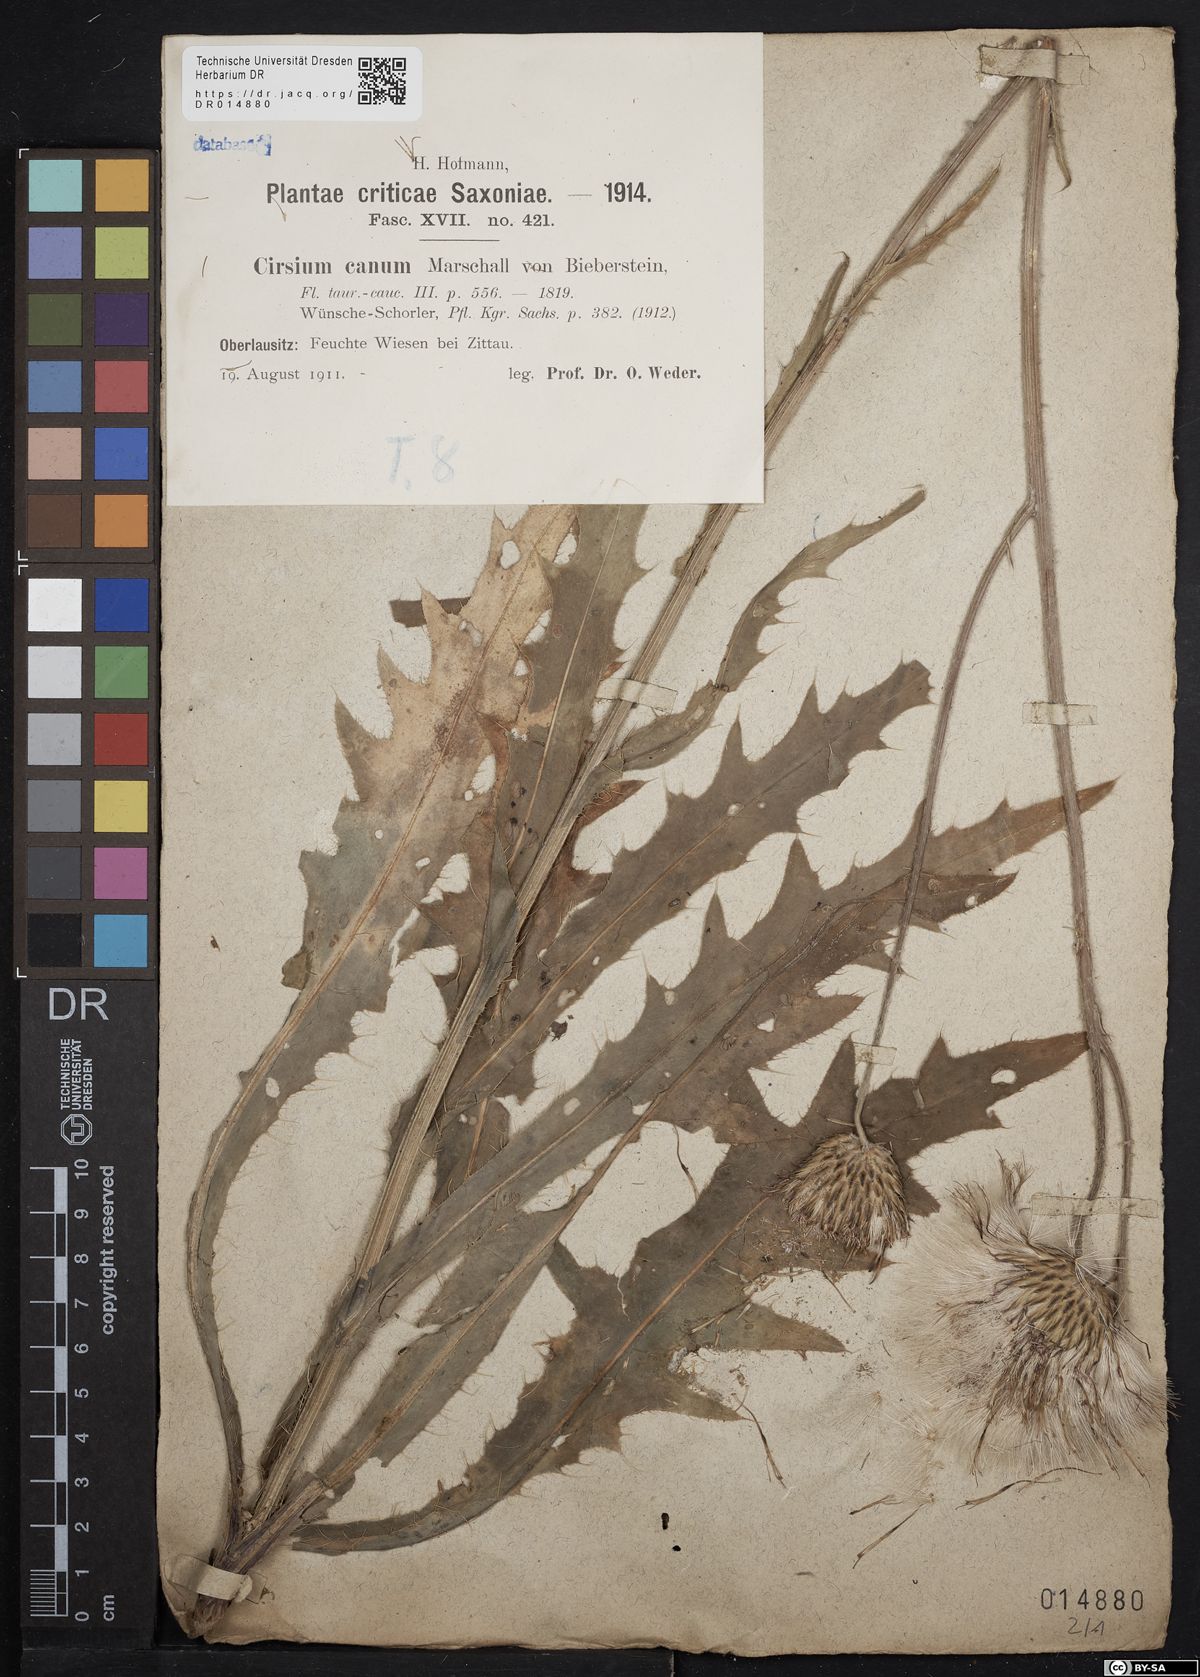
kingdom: Plantae
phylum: Tracheophyta
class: Magnoliopsida
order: Asterales
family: Asteraceae
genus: Cirsium
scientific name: Cirsium canum
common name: Queen anne's thistle
